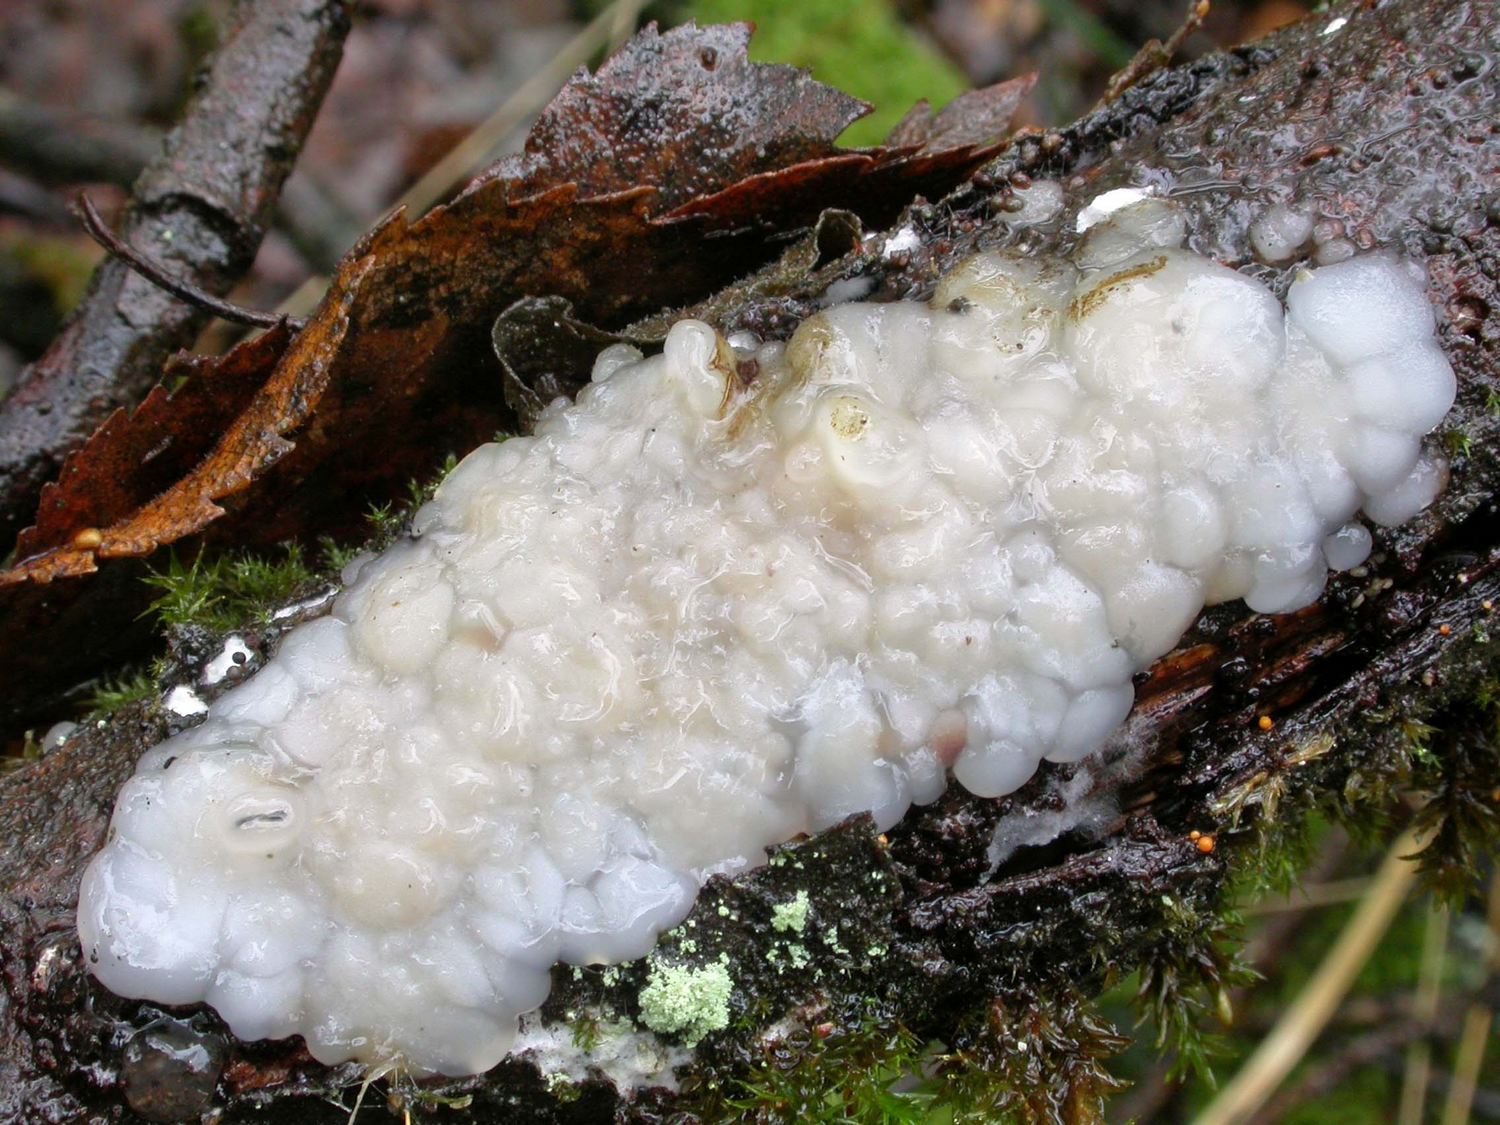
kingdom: Fungi
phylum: Basidiomycota
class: Agaricomycetes
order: Auriculariales
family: Auriculariaceae
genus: Exidia
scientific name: Exidia thuretiana
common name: hvidlig bævretop
